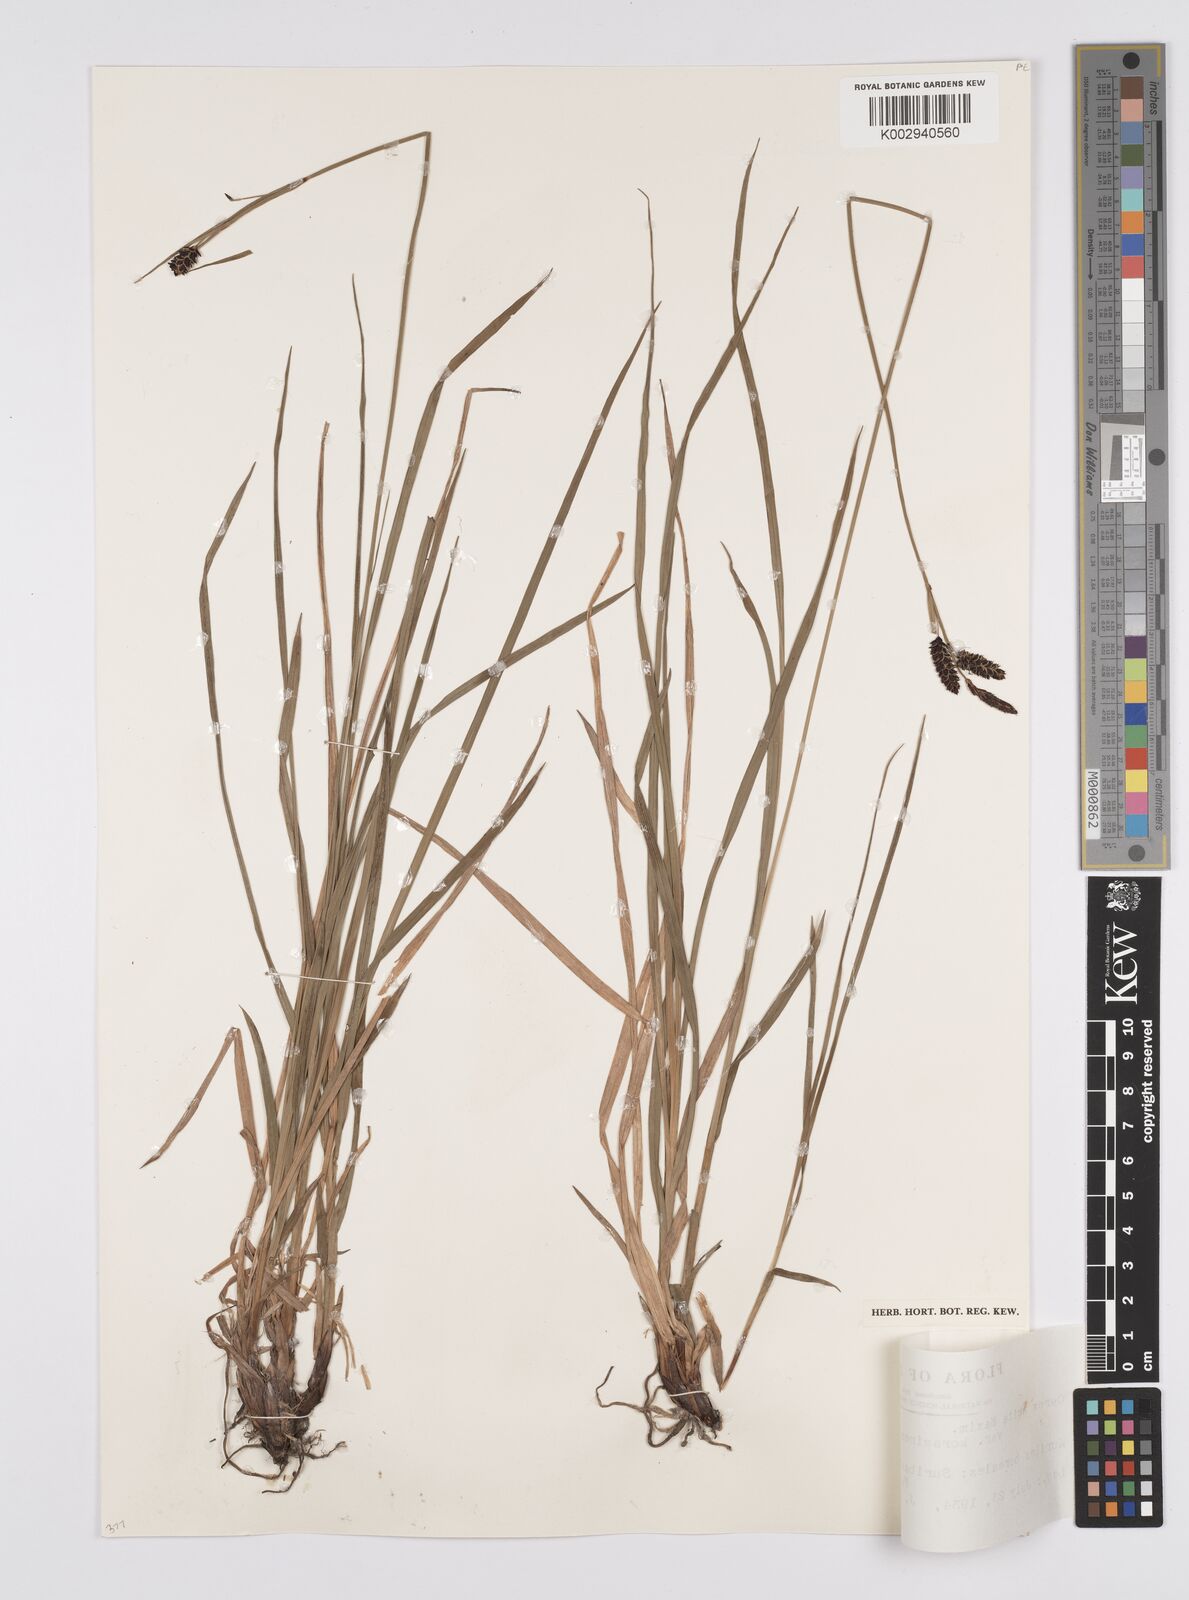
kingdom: Plantae
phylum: Tracheophyta
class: Liliopsida
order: Poales
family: Cyperaceae
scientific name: Cyperaceae
